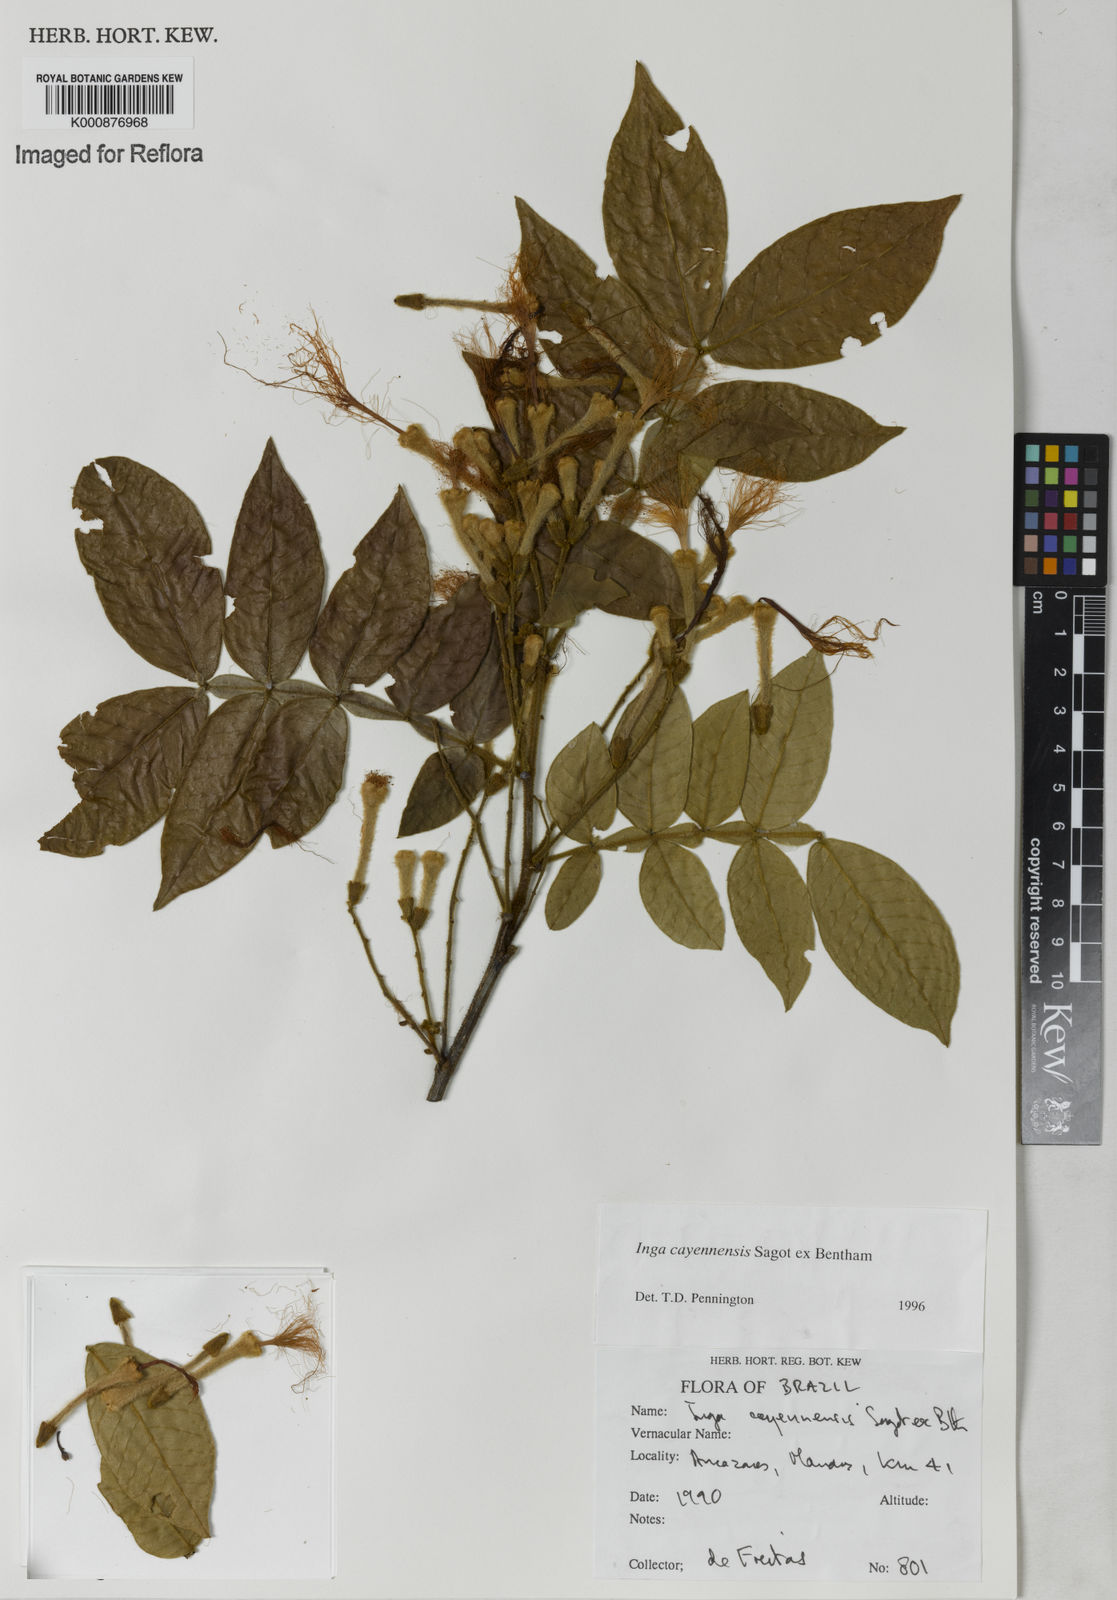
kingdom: Plantae
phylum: Tracheophyta
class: Magnoliopsida
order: Fabales
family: Fabaceae
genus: Inga
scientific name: Inga cayennensis
